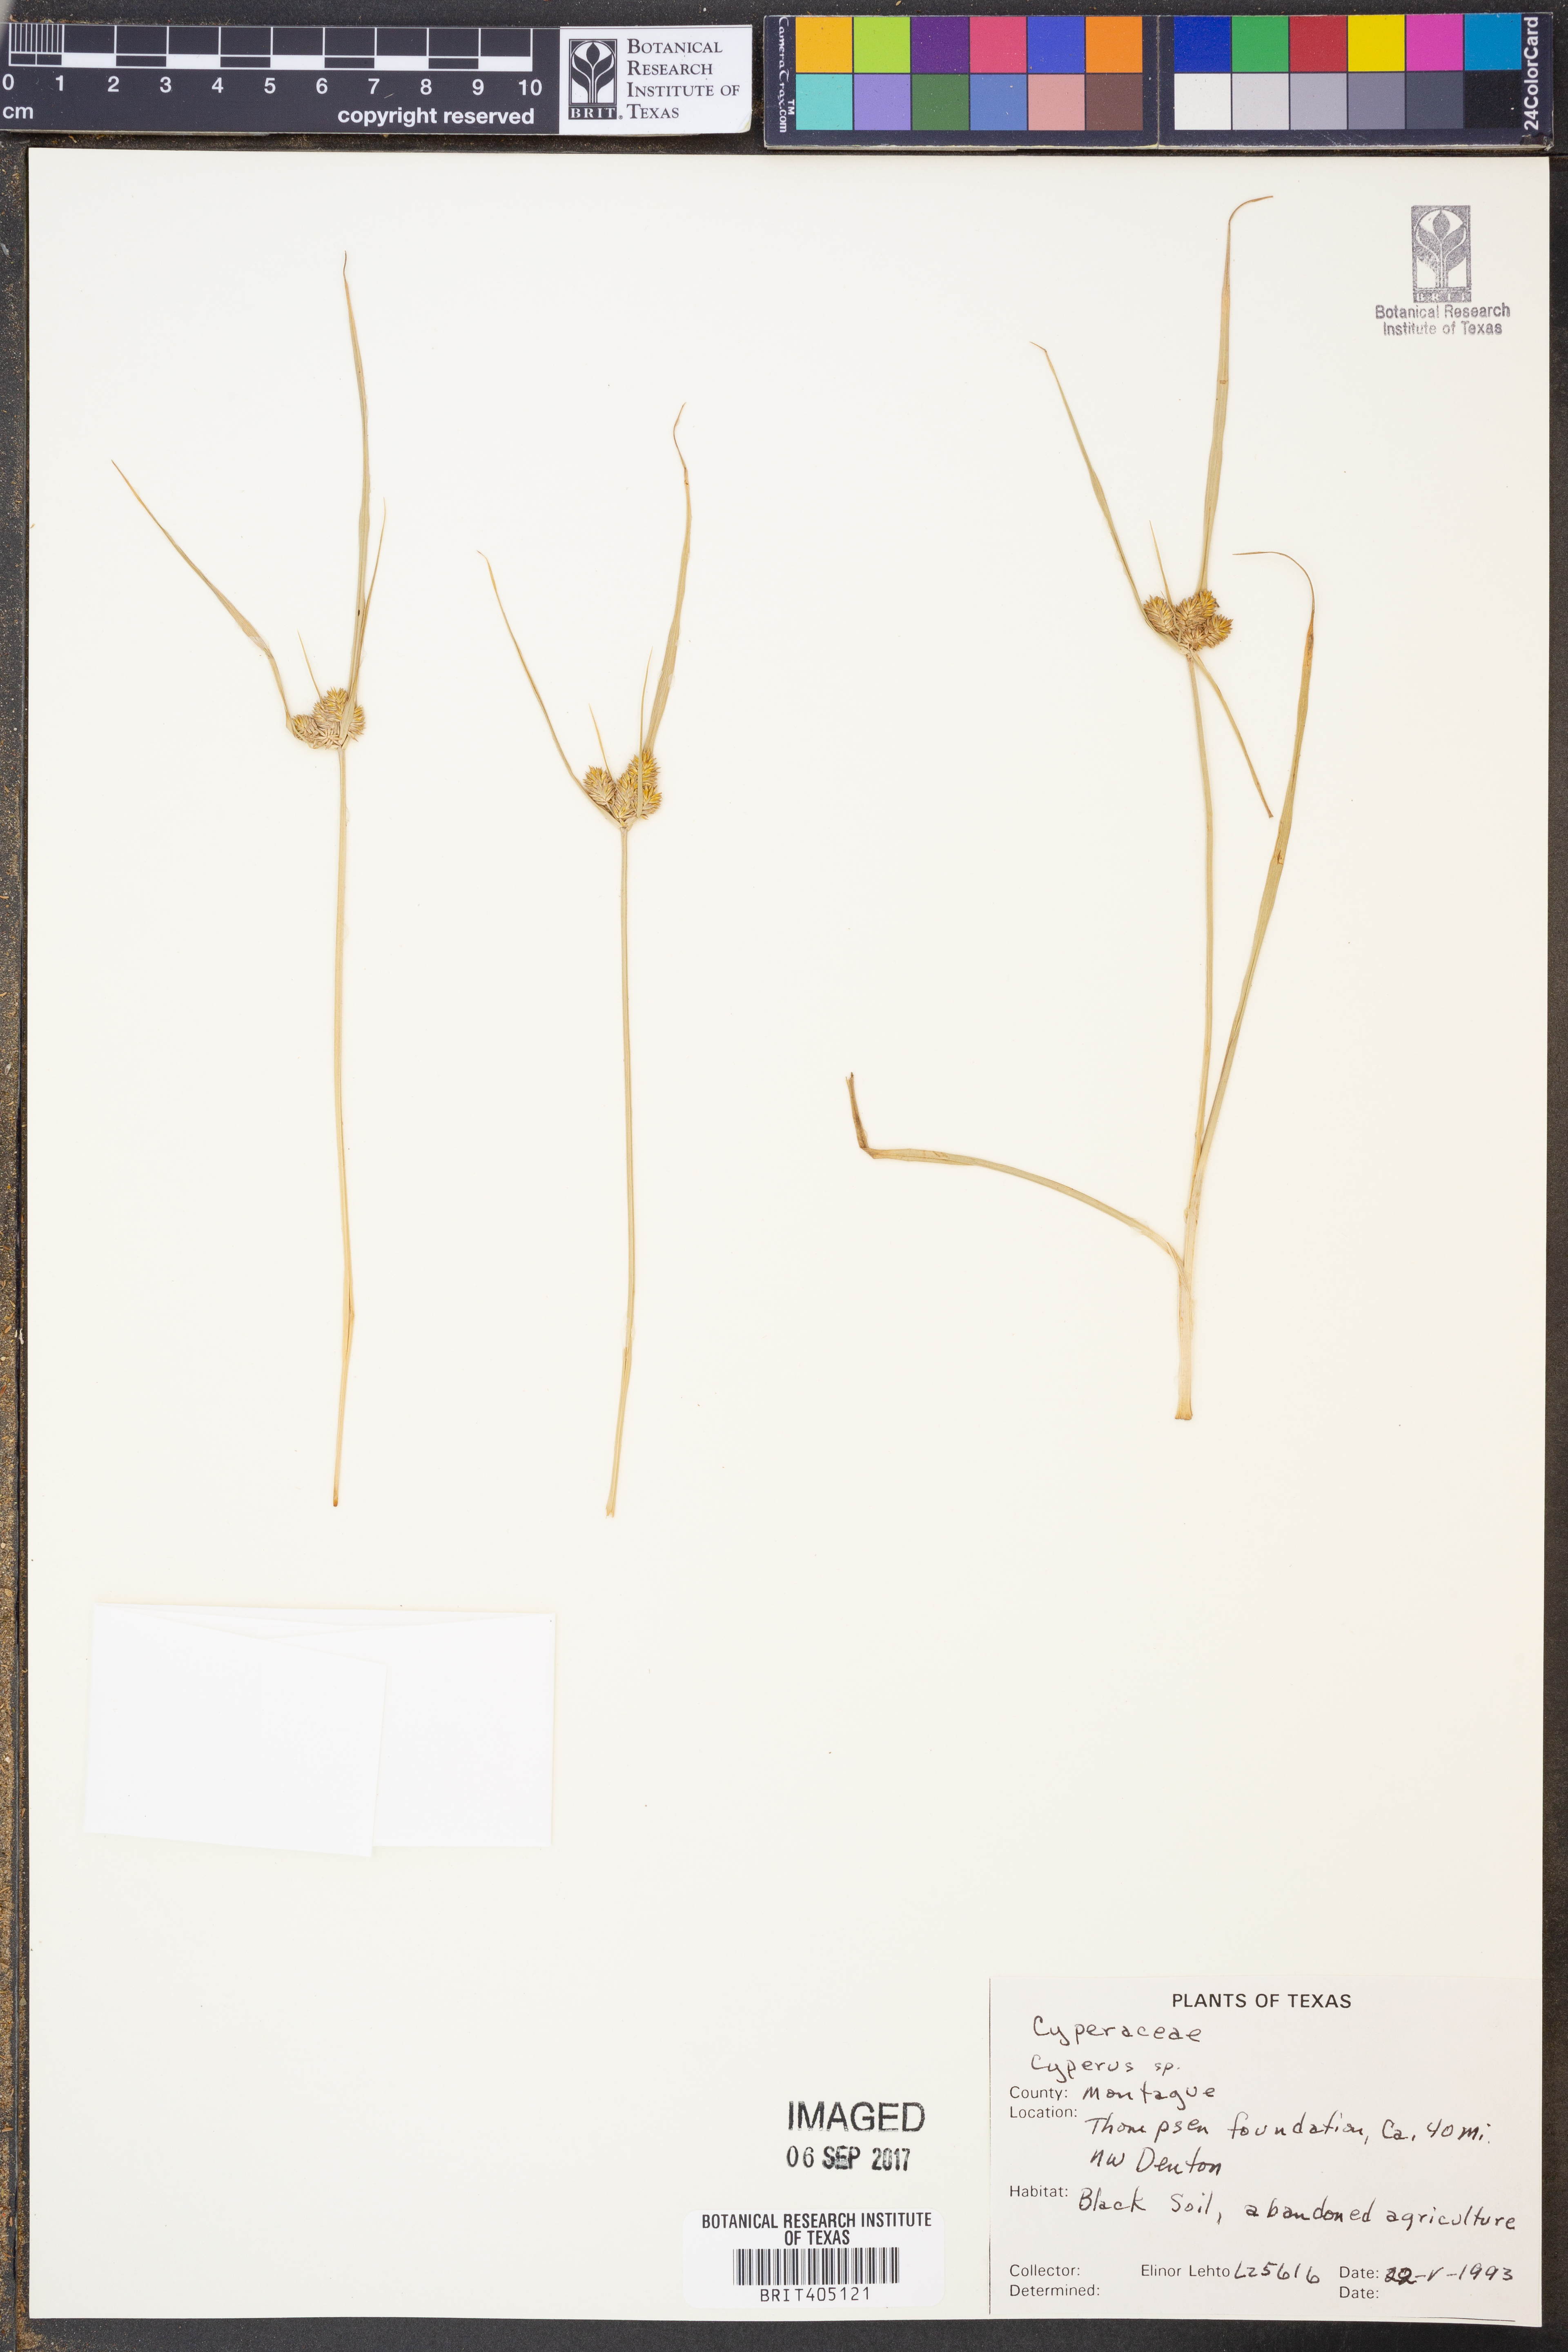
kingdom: Plantae
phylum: Tracheophyta
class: Liliopsida
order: Poales
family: Cyperaceae
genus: Cyperus
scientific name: Cyperus
